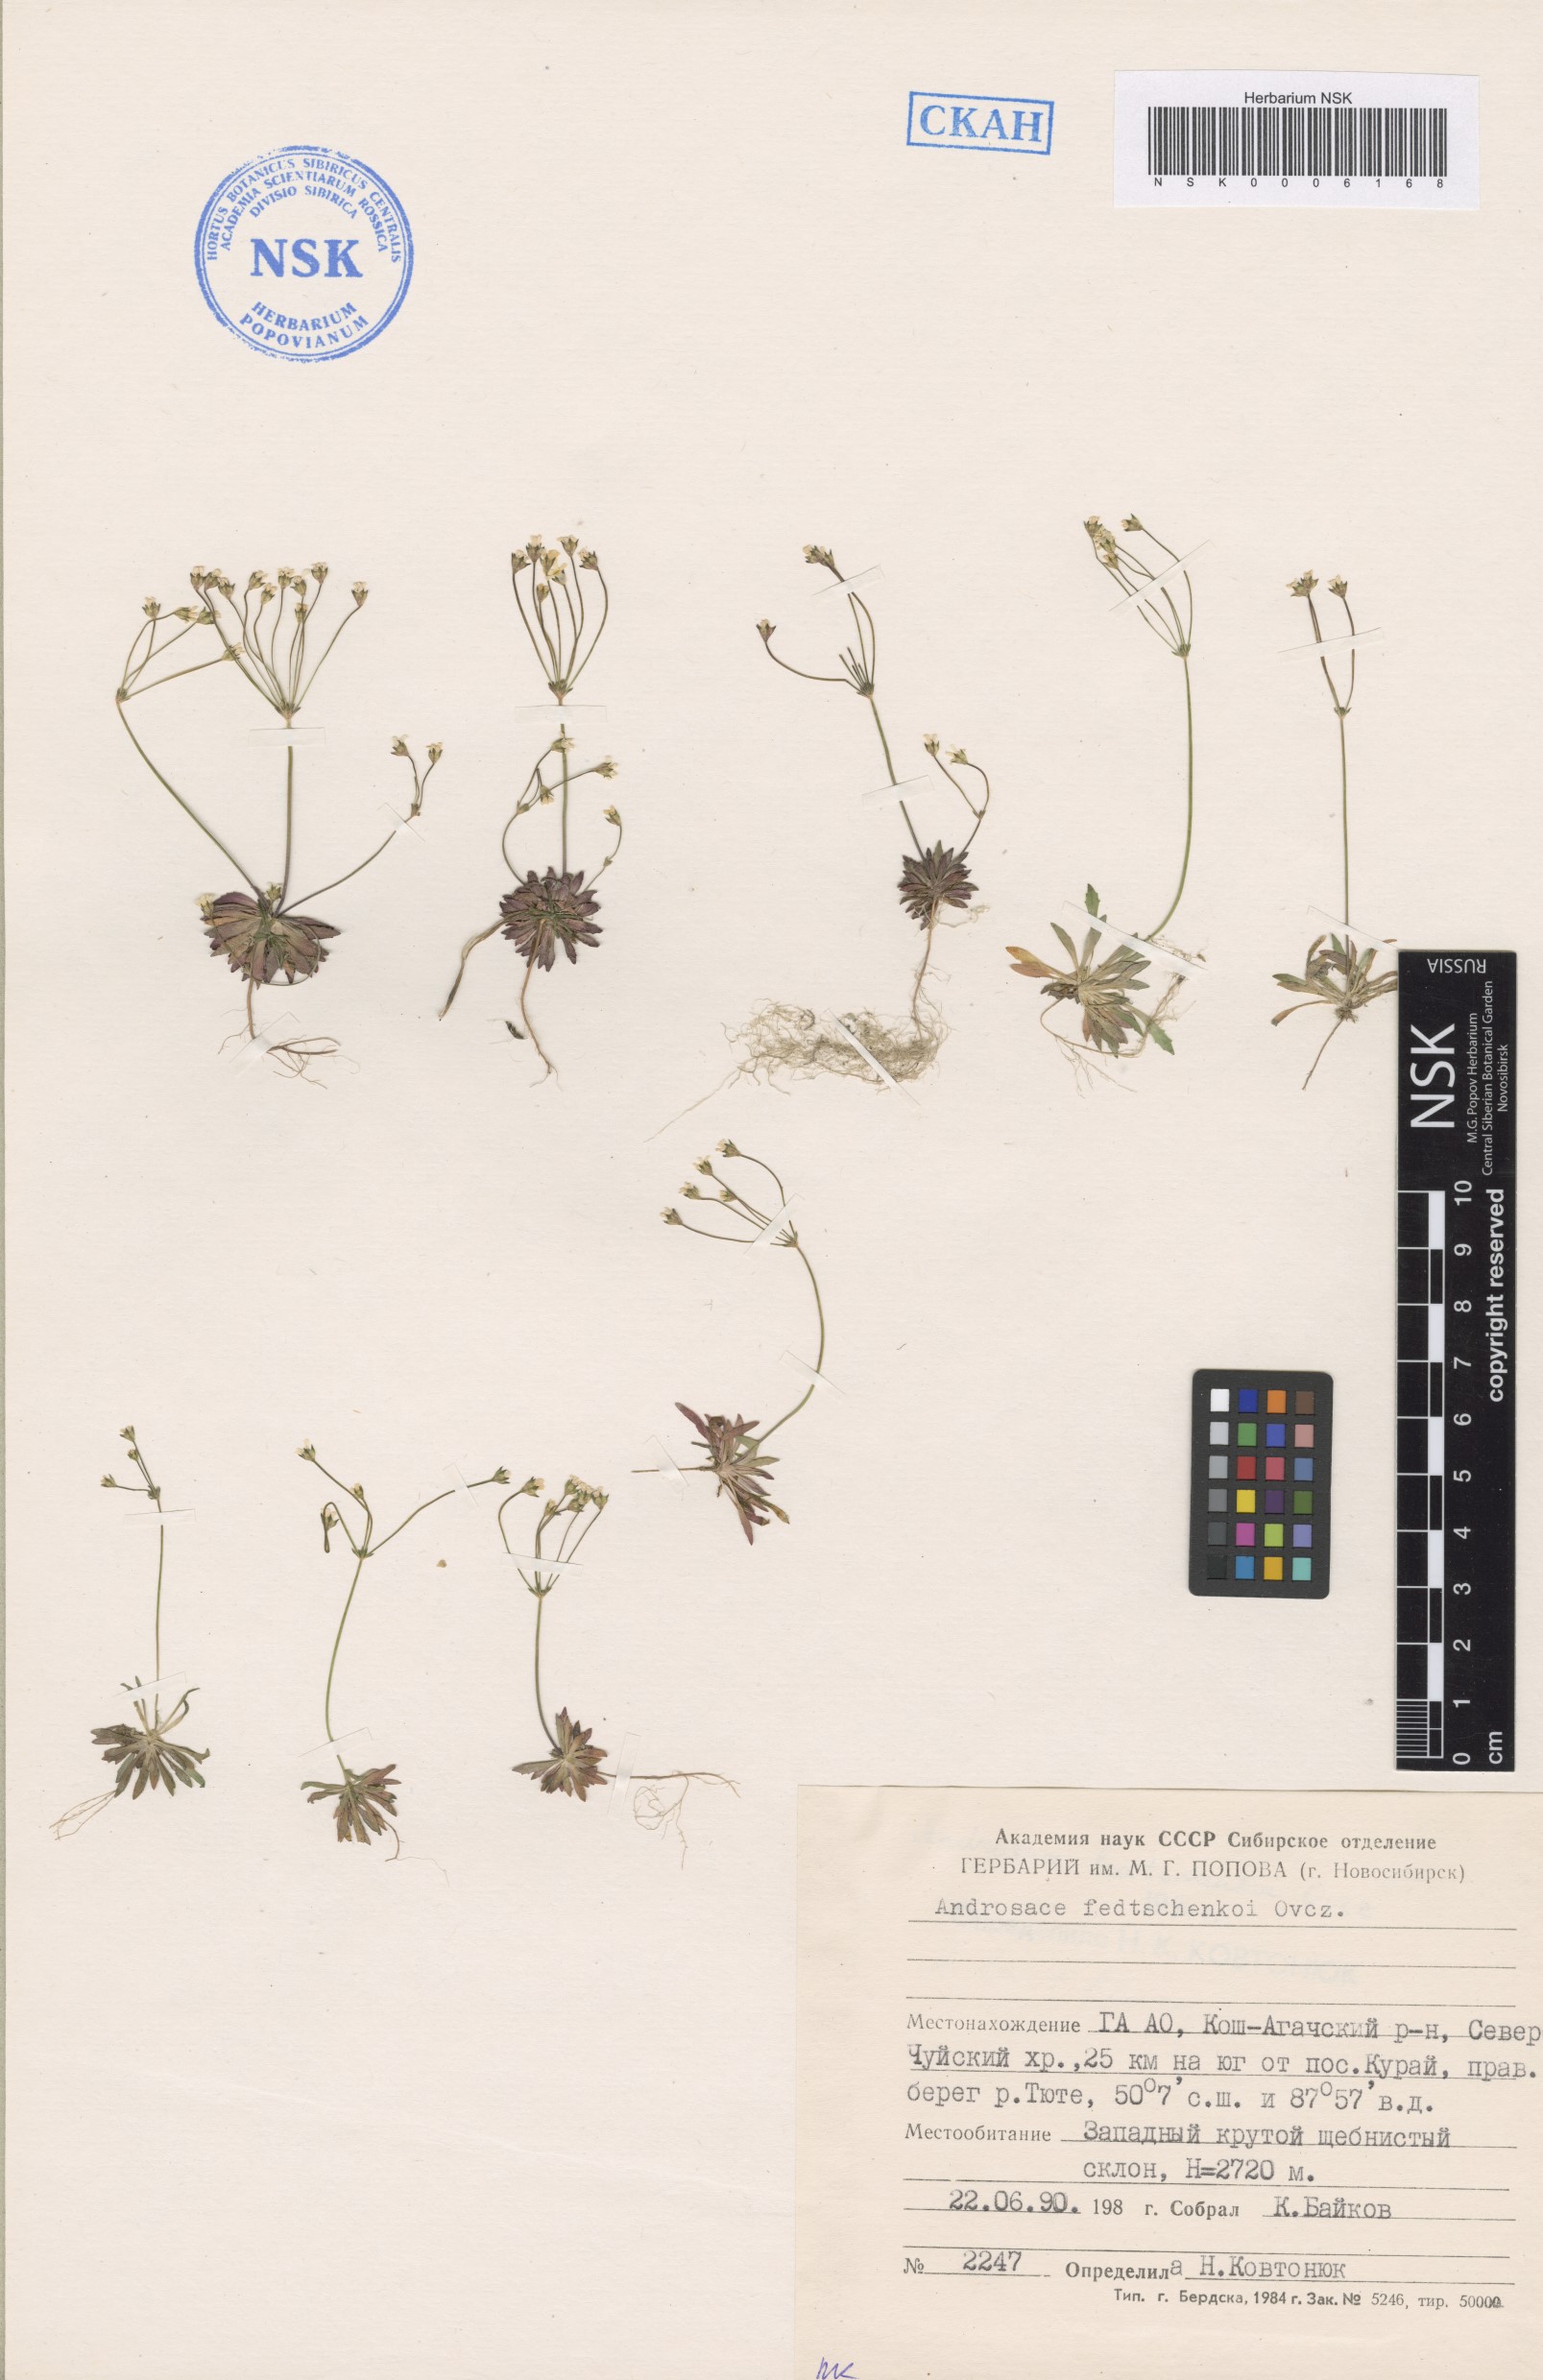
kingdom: Plantae
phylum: Tracheophyta
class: Magnoliopsida
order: Ericales
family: Primulaceae
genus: Androsace
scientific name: Androsace fedtschenkoi
